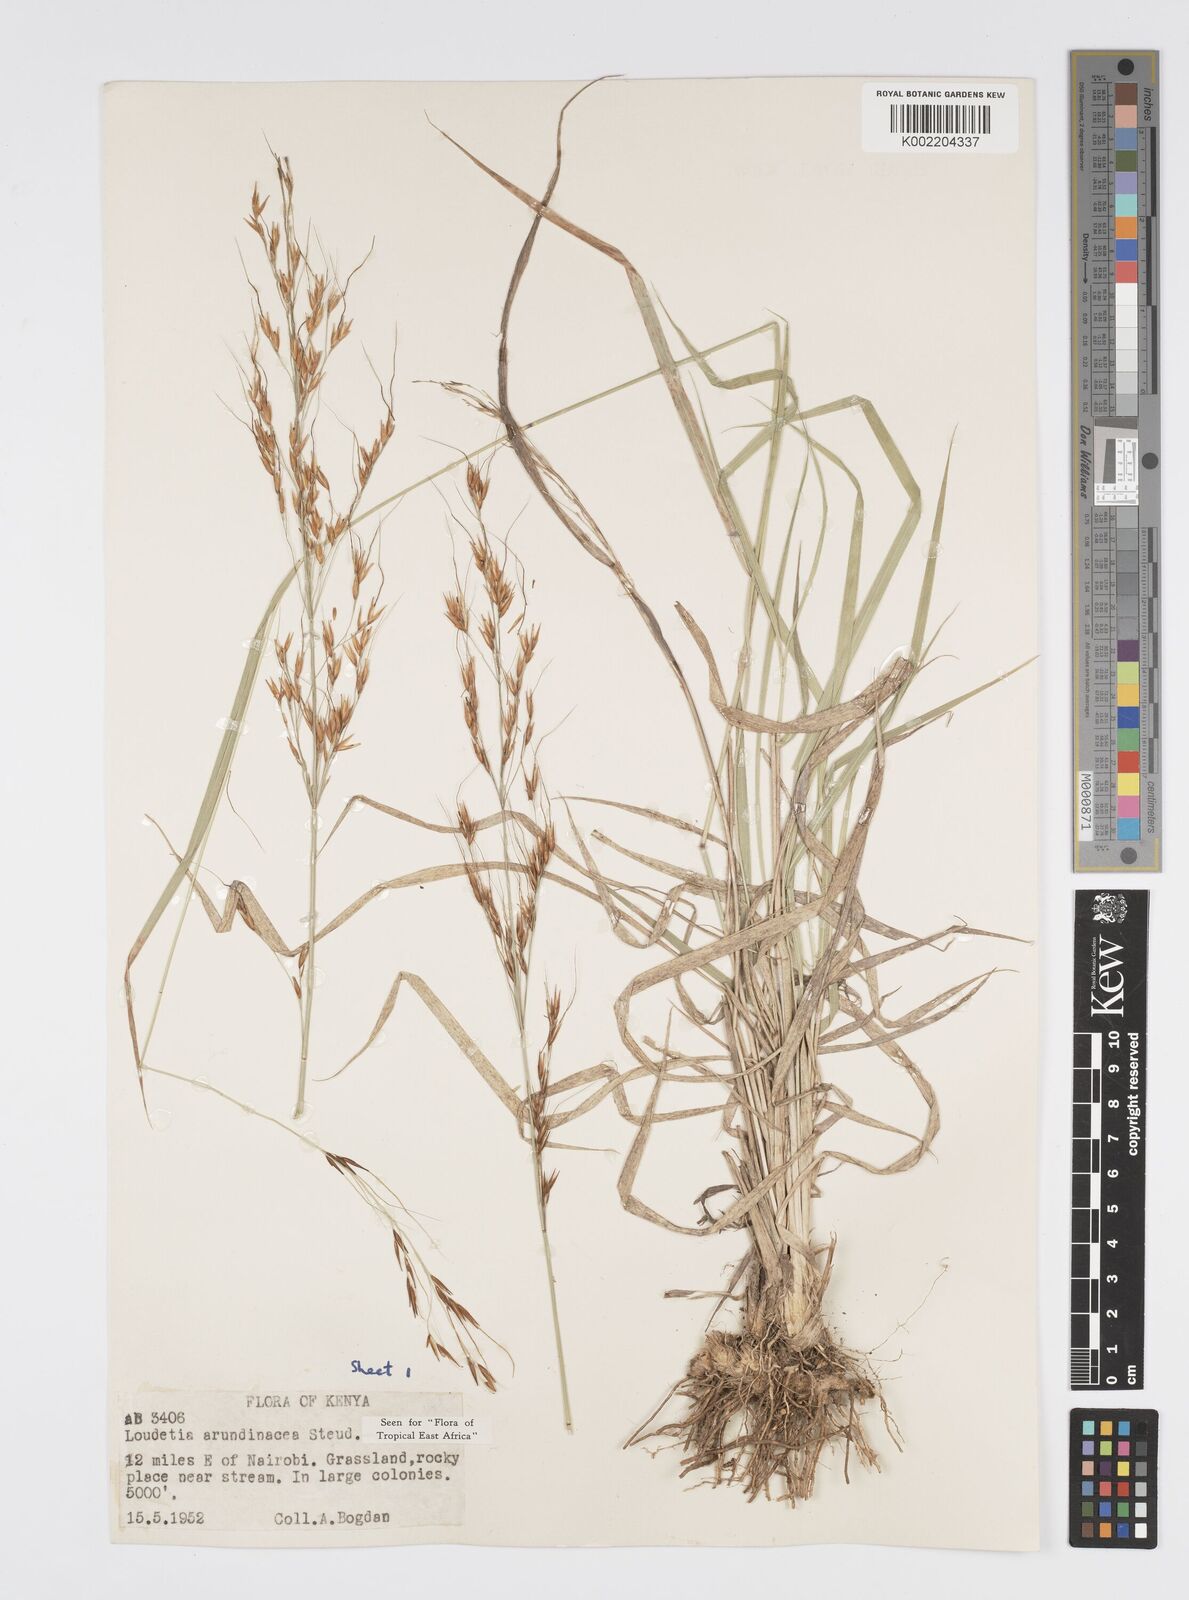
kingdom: Plantae
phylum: Tracheophyta
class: Liliopsida
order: Poales
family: Poaceae
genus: Loudetia
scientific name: Loudetia arundinacea
